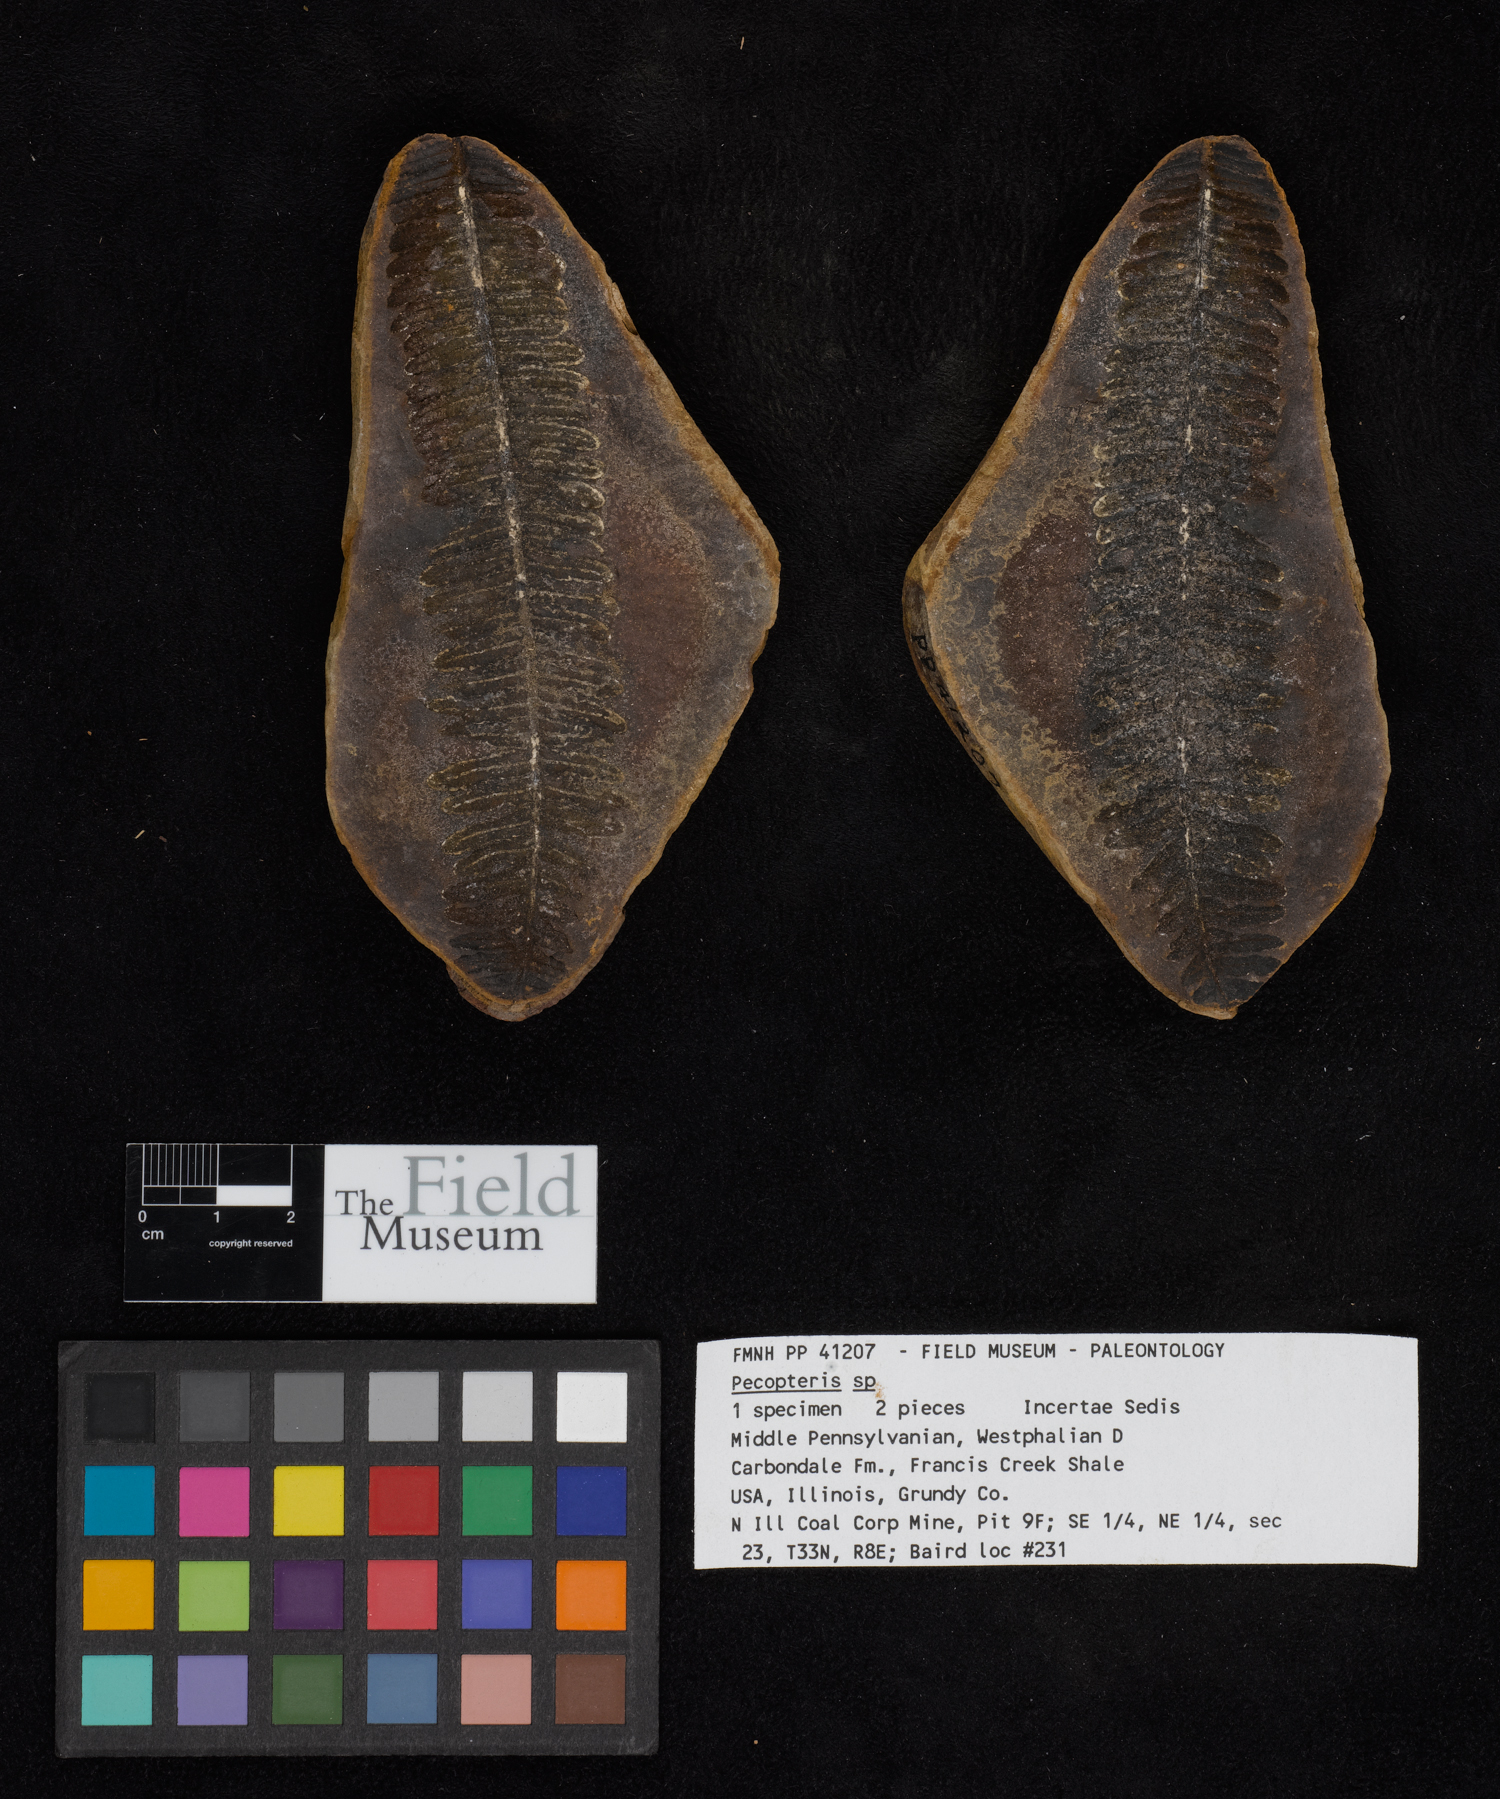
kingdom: Plantae
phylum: Tracheophyta
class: Polypodiopsida
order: Marattiales
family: Asterothecaceae
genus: Pecopteris
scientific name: Pecopteris
